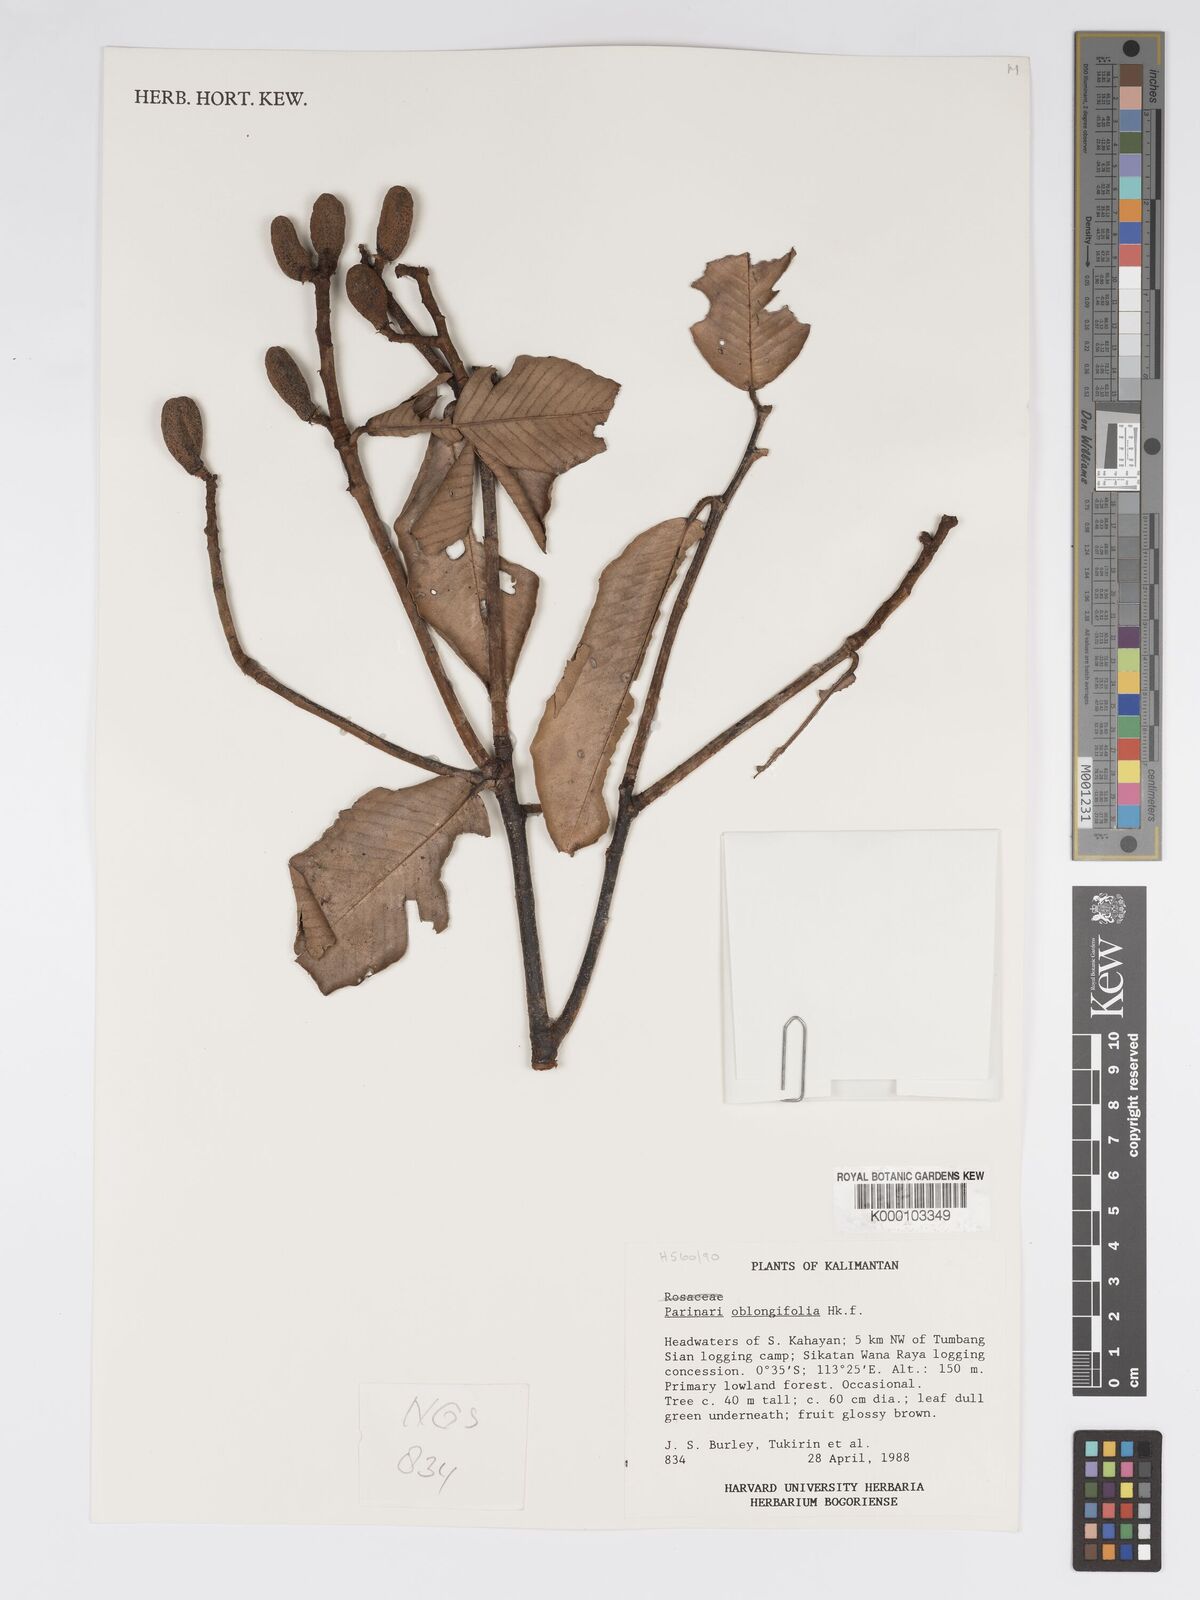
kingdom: Plantae
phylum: Tracheophyta
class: Magnoliopsida
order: Malpighiales
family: Chrysobalanaceae
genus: Parinari
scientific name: Parinari oblongifolia
